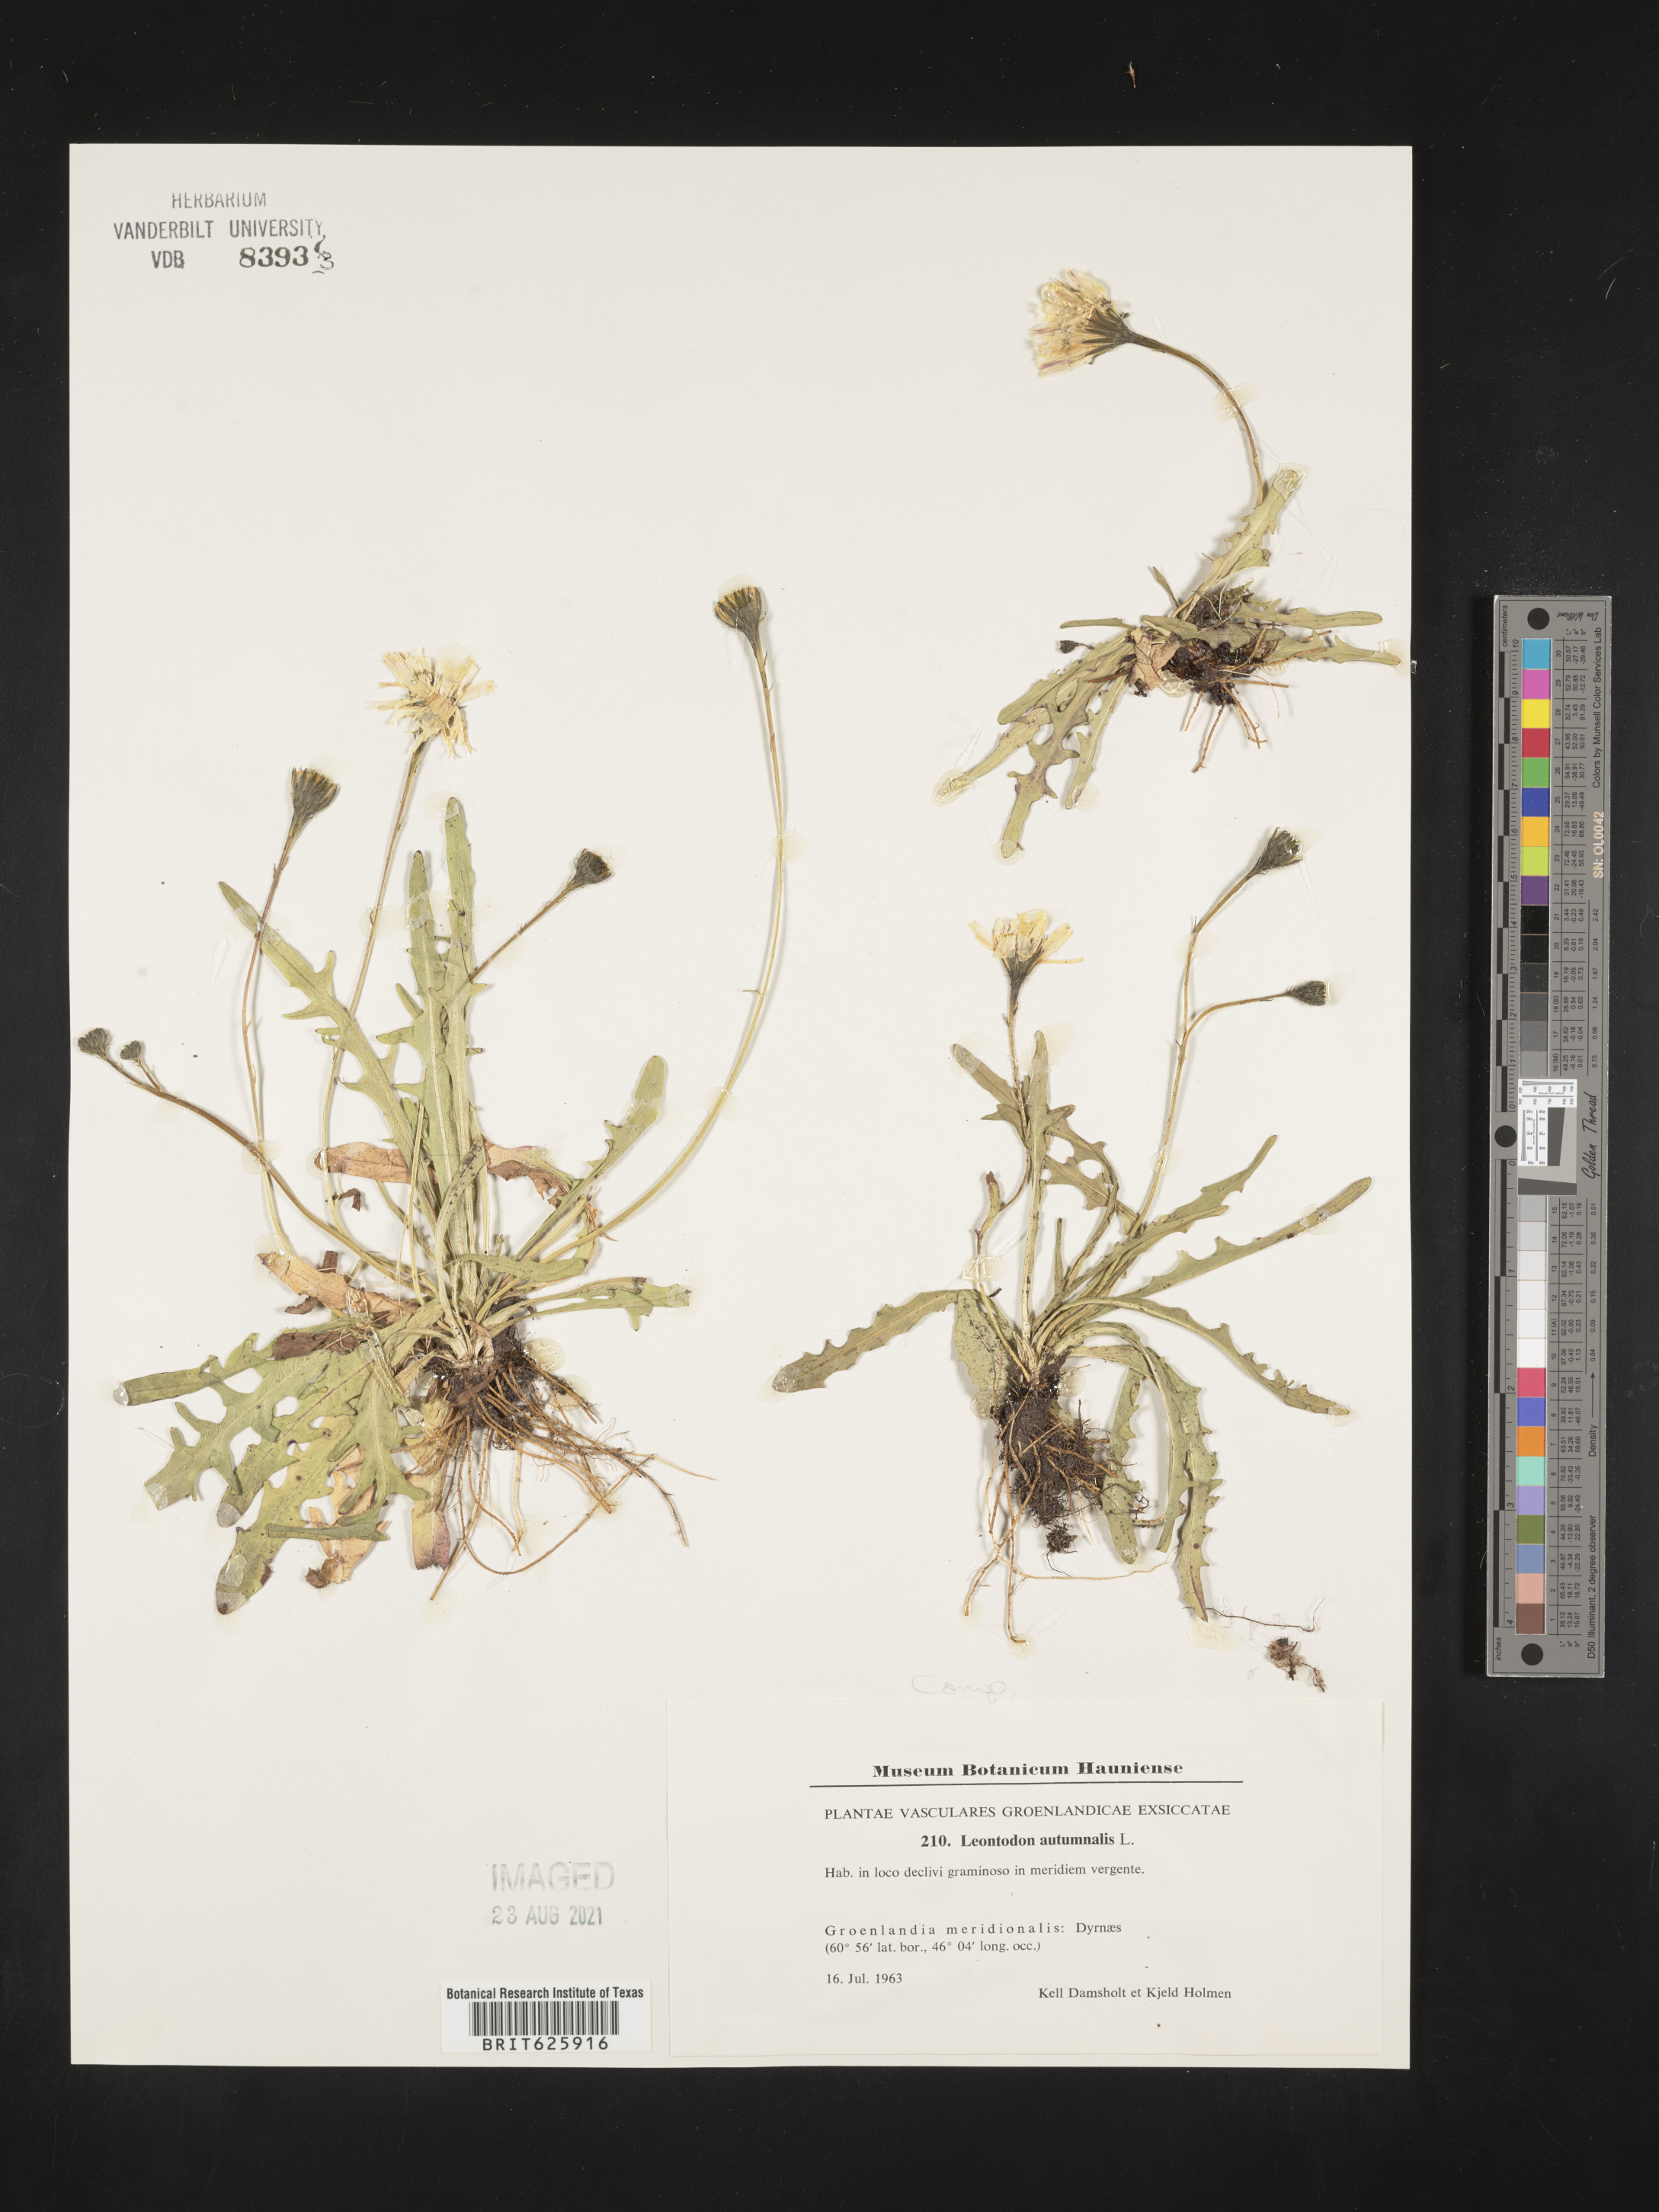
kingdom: Plantae
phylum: Tracheophyta
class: Magnoliopsida
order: Asterales
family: Asteraceae
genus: Scorzoneroides
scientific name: Scorzoneroides autumnalis
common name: Autumn hawkbit
